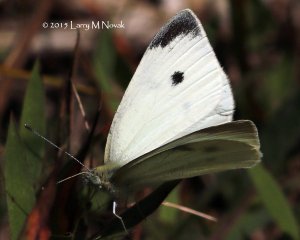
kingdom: Animalia
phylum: Arthropoda
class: Insecta
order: Lepidoptera
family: Pieridae
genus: Pieris
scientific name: Pieris rapae
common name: Cabbage White
